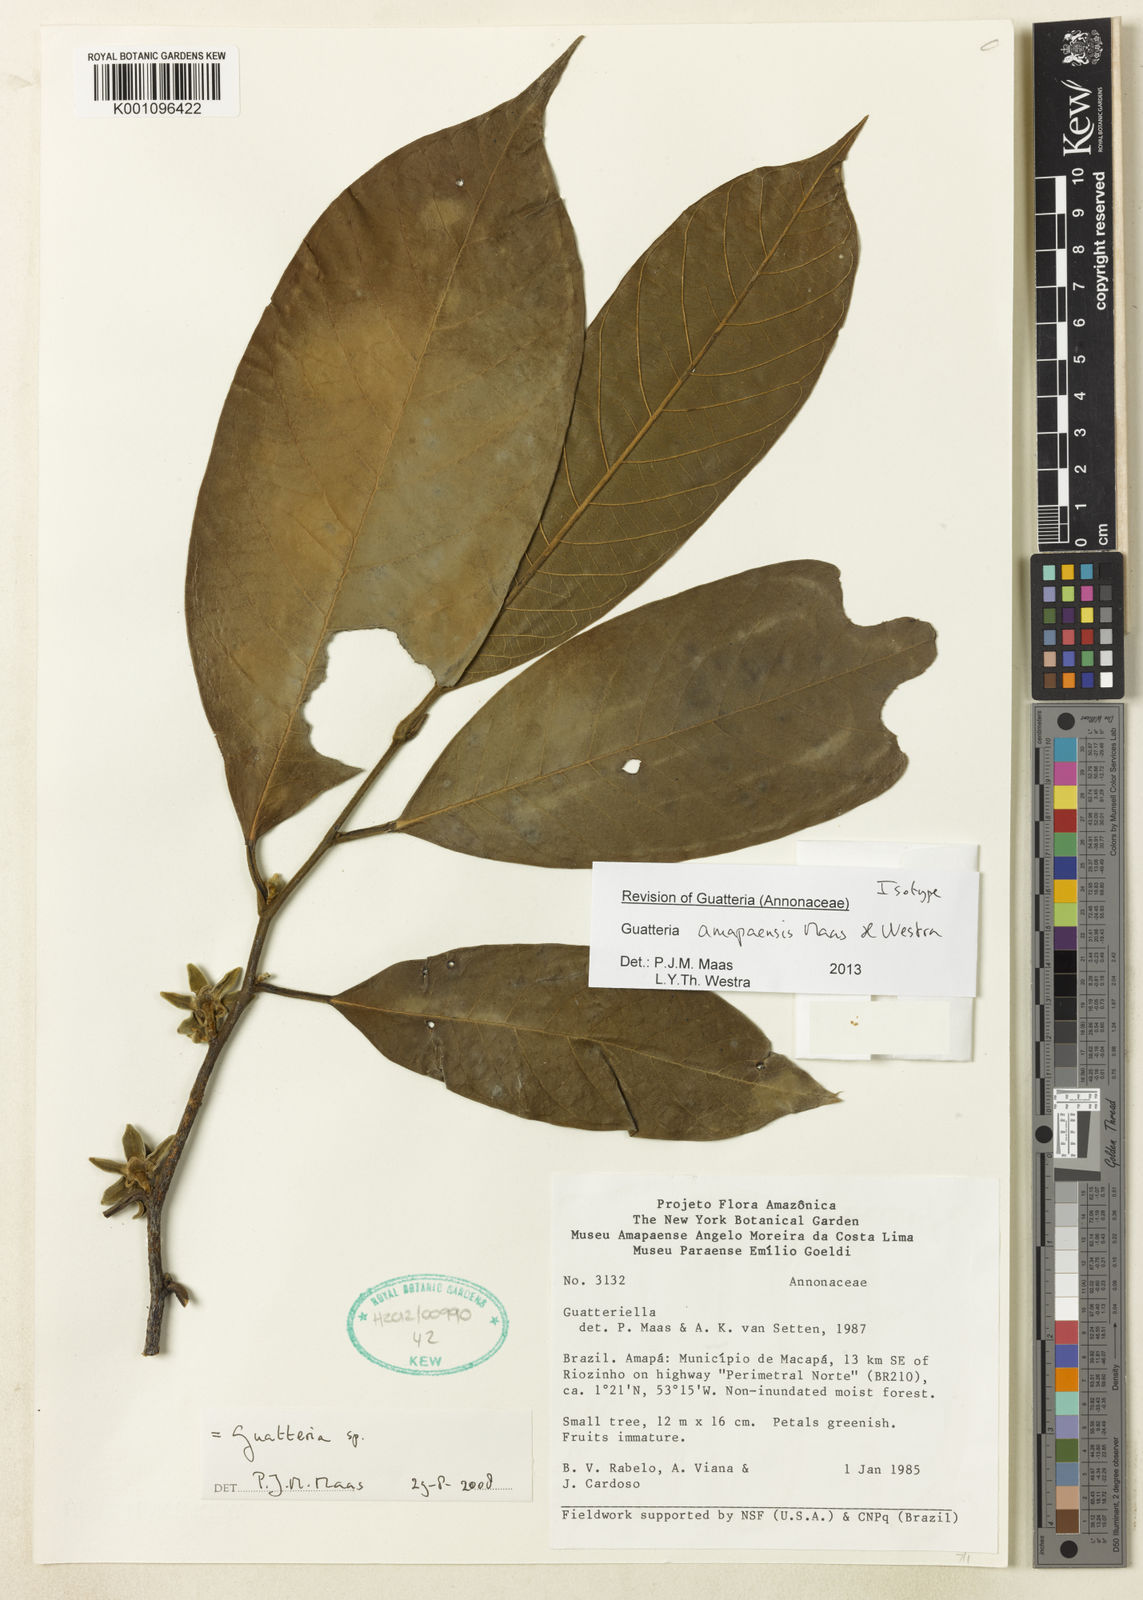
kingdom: Plantae
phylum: Tracheophyta
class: Magnoliopsida
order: Magnoliales
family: Annonaceae
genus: Guatteria
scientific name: Guatteria amapaensis
